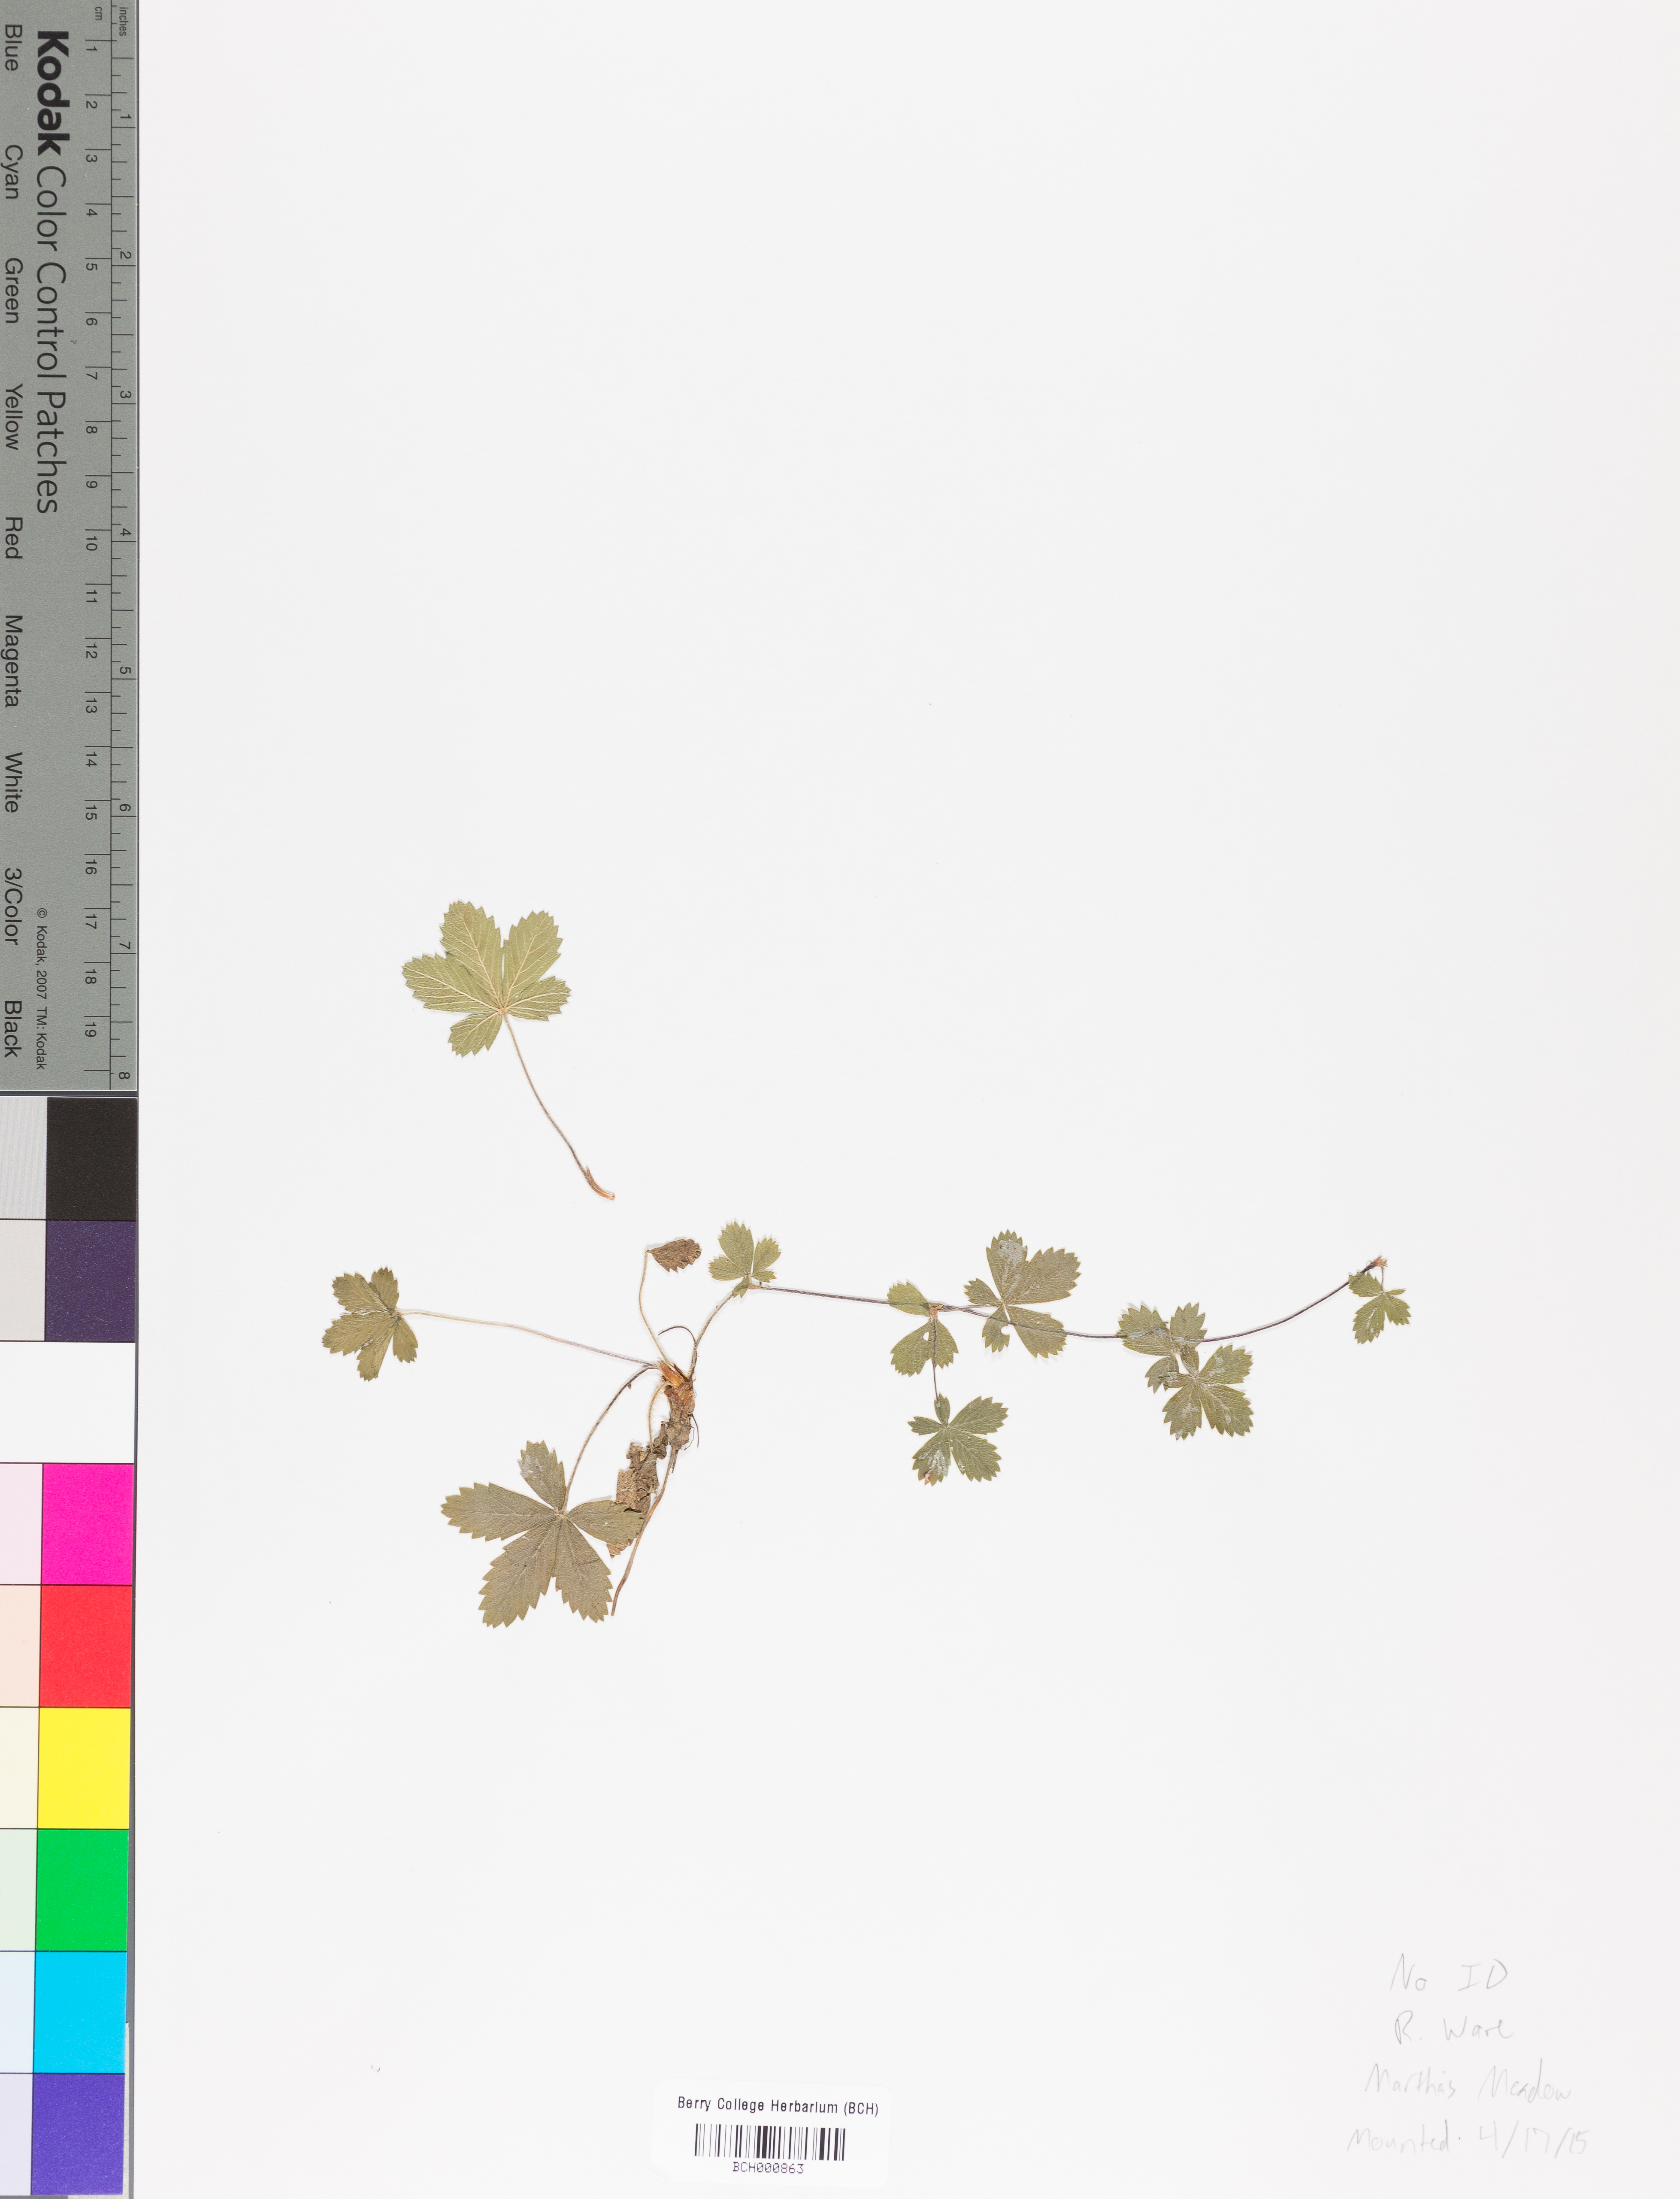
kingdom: Plantae
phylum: Tracheophyta
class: Magnoliopsida
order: Lamiales
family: Acanthaceae
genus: Adhatoda
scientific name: Adhatoda
